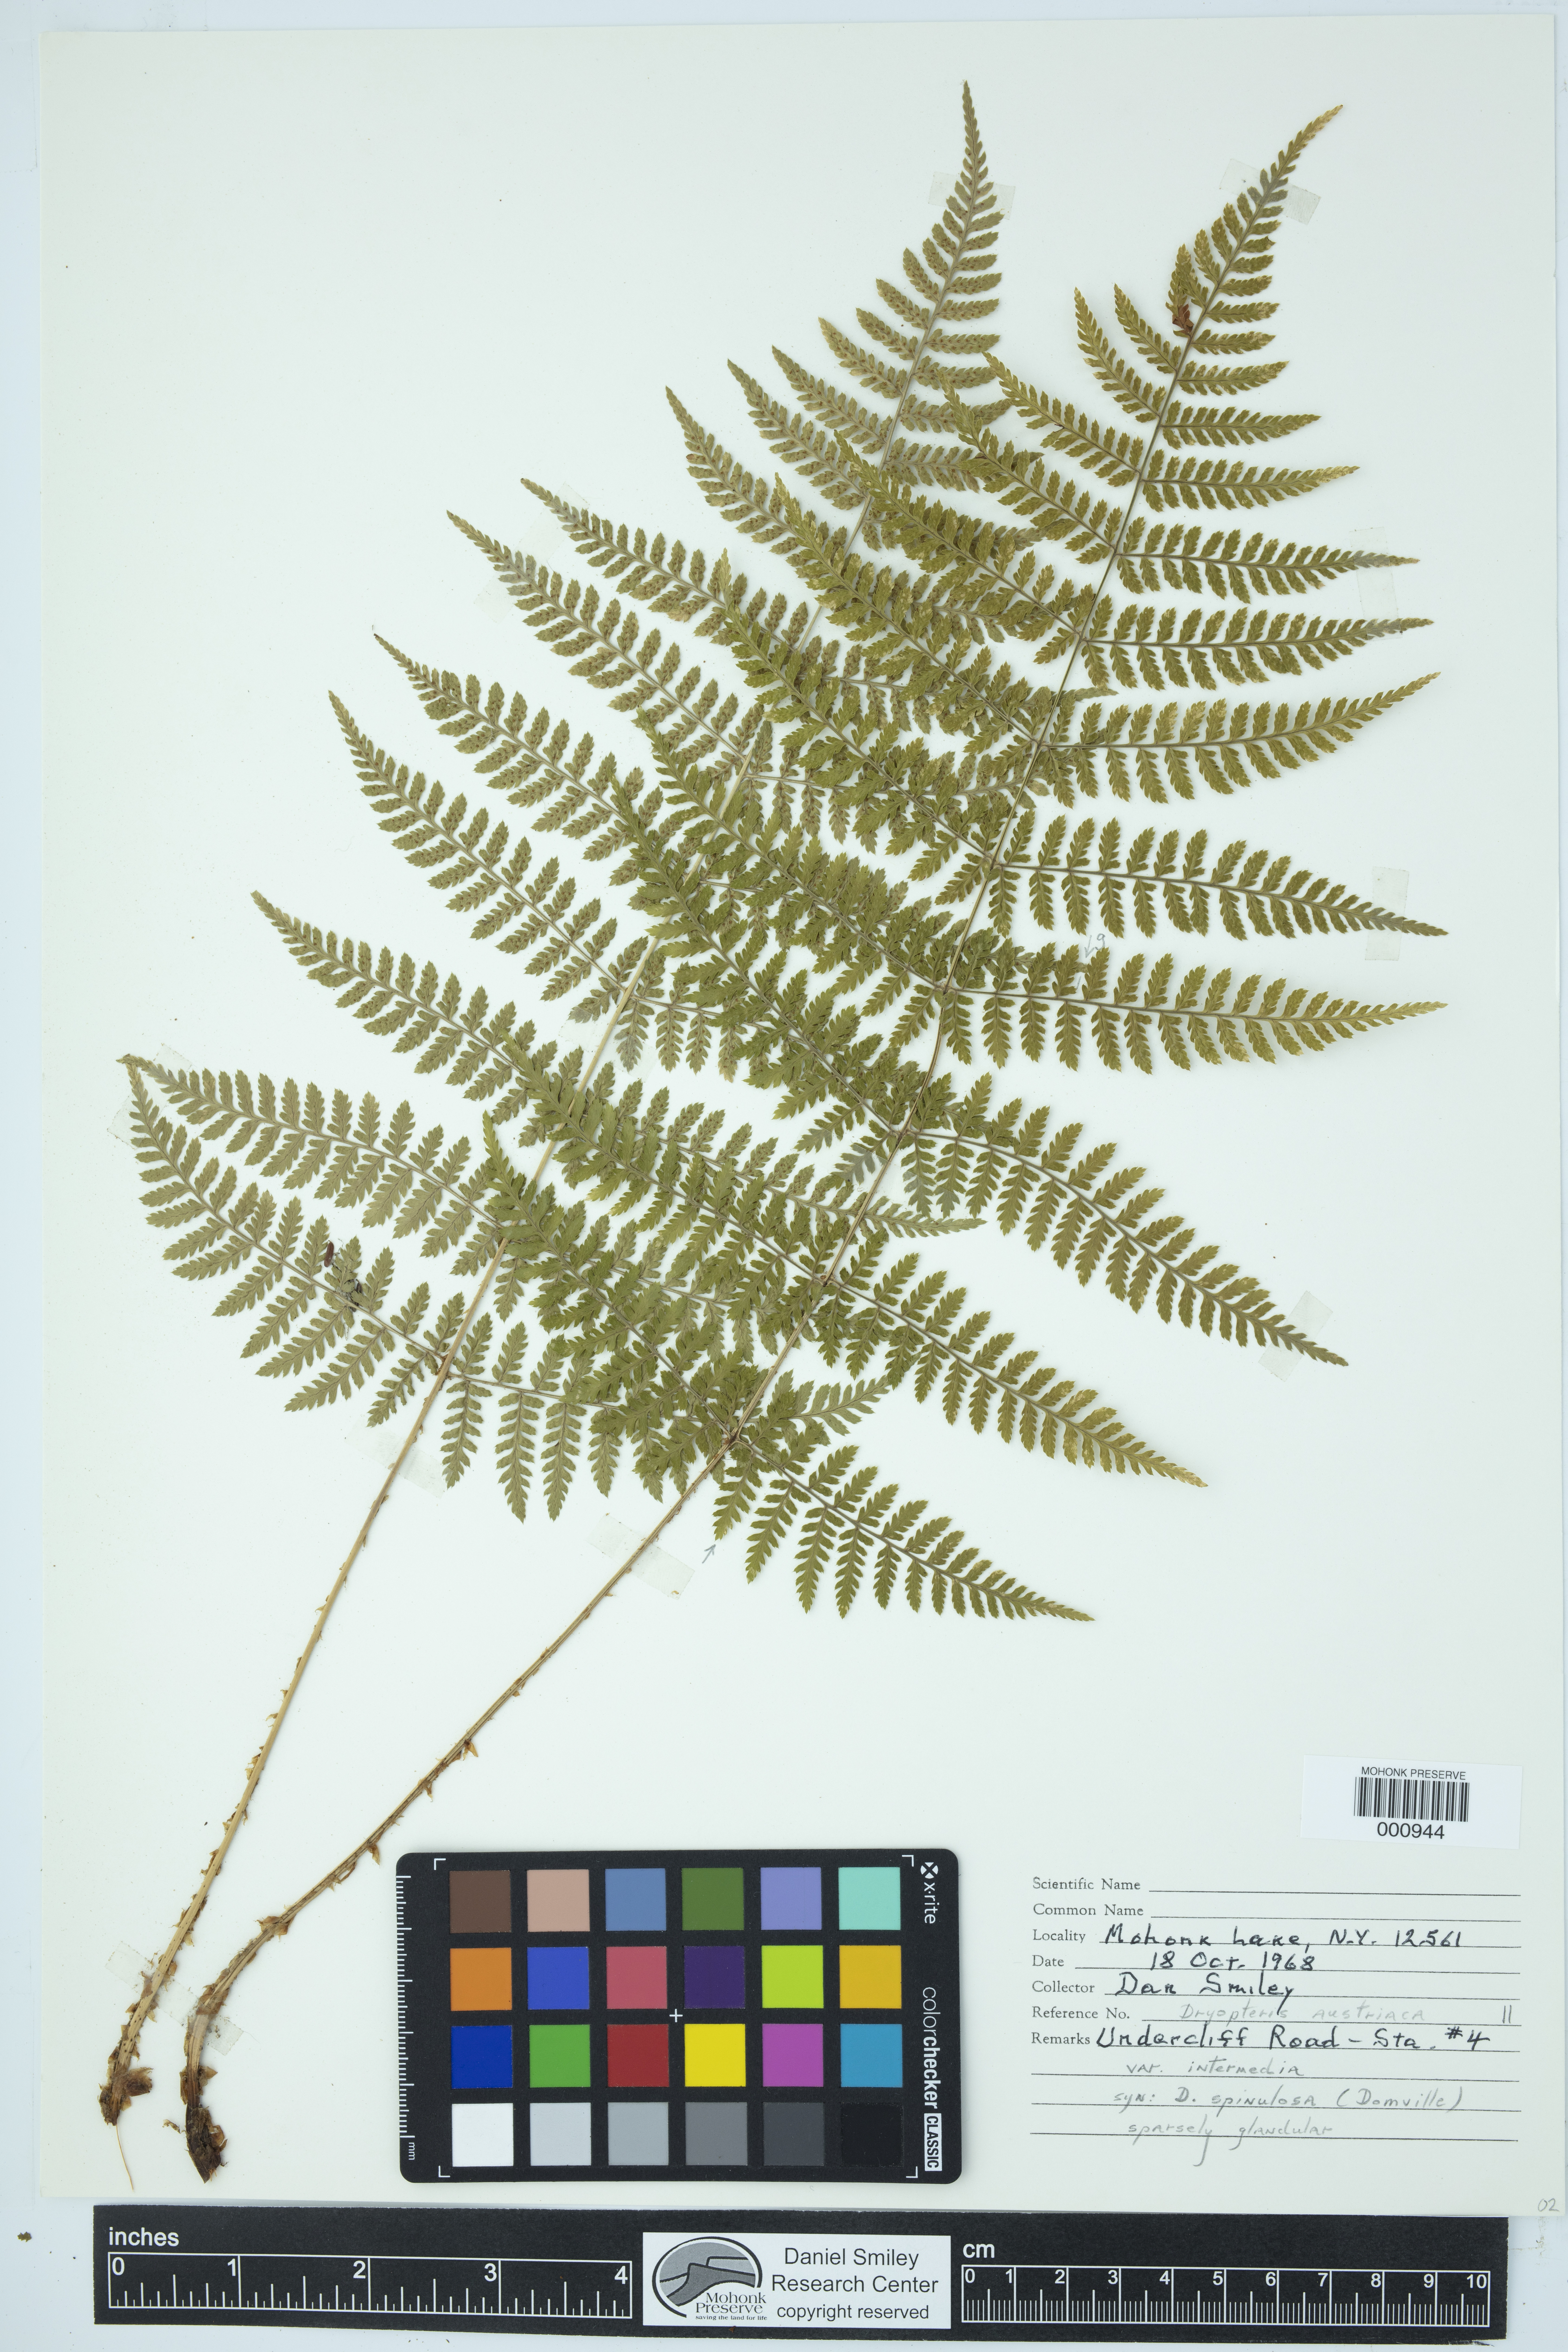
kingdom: Plantae
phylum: Tracheophyta
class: Polypodiopsida
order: Polypodiales
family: Dryopteridaceae
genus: Dryopteris
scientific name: Dryopteris intermedia
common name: Evergreen wood fern
